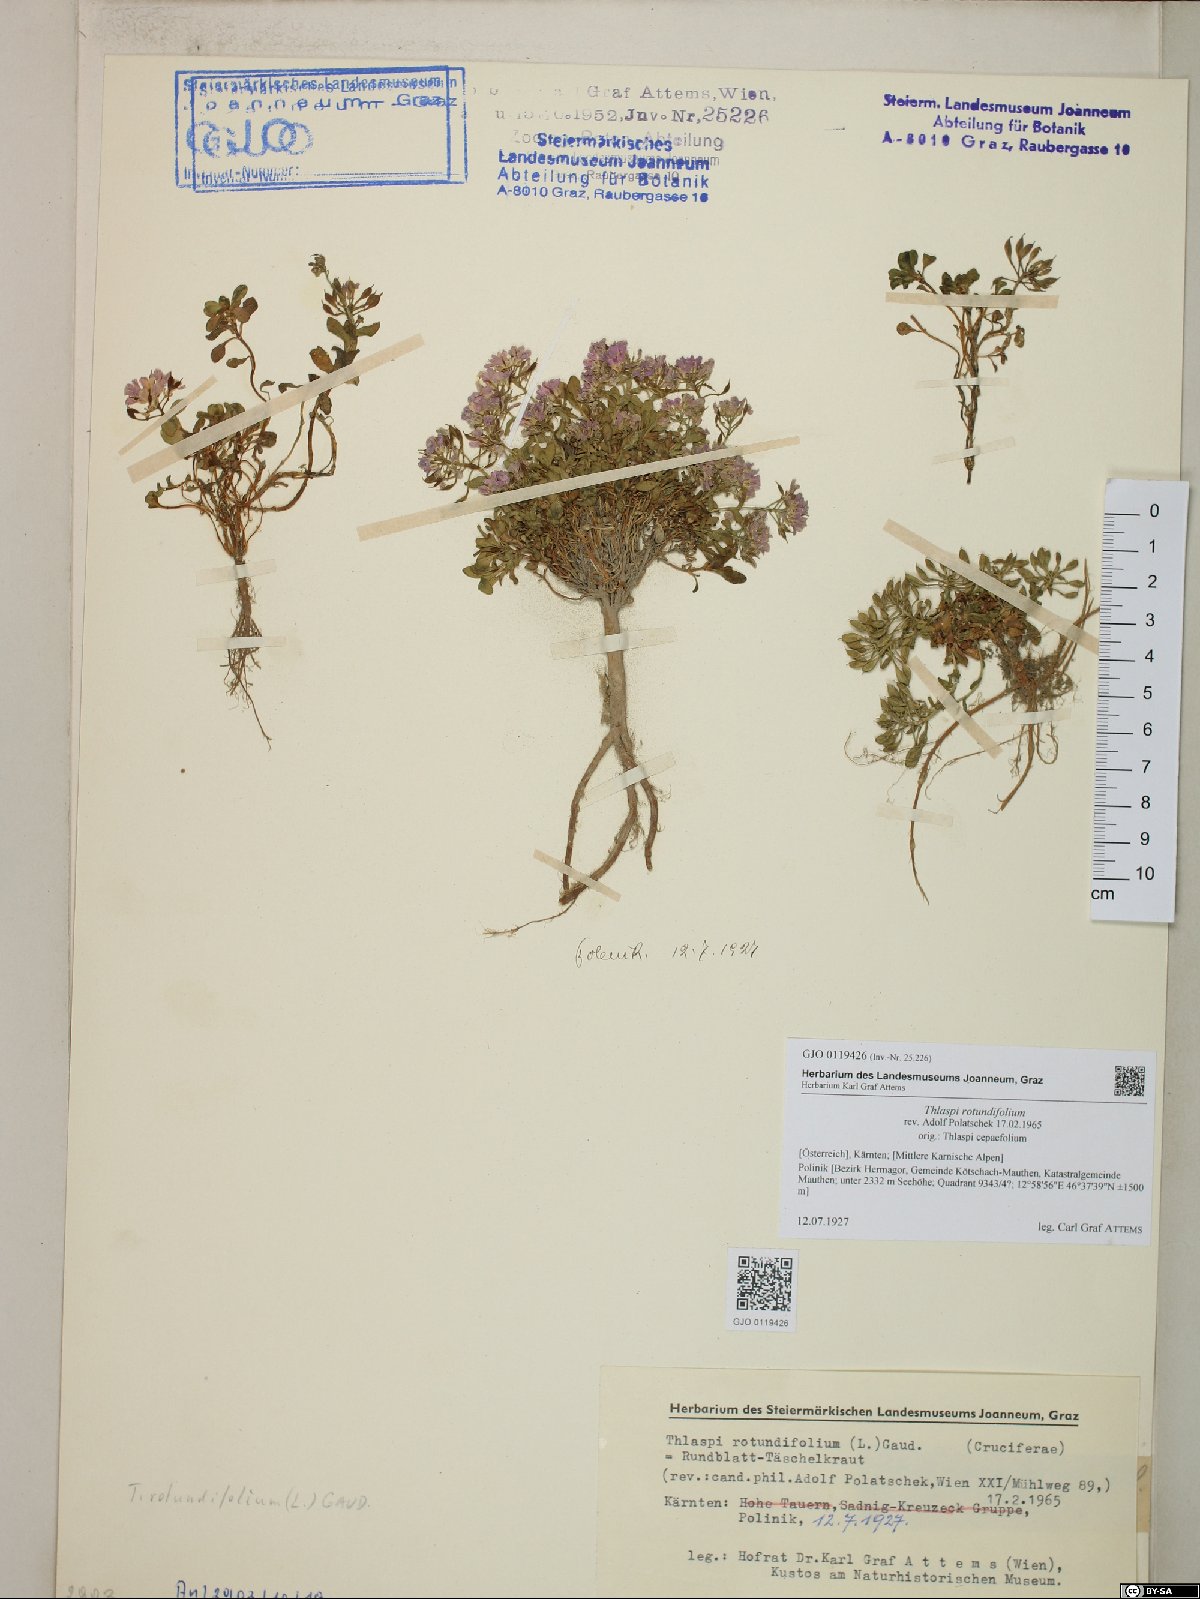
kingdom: Plantae
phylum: Tracheophyta
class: Magnoliopsida
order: Brassicales
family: Brassicaceae
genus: Noccaea
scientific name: Noccaea rotundifolia
